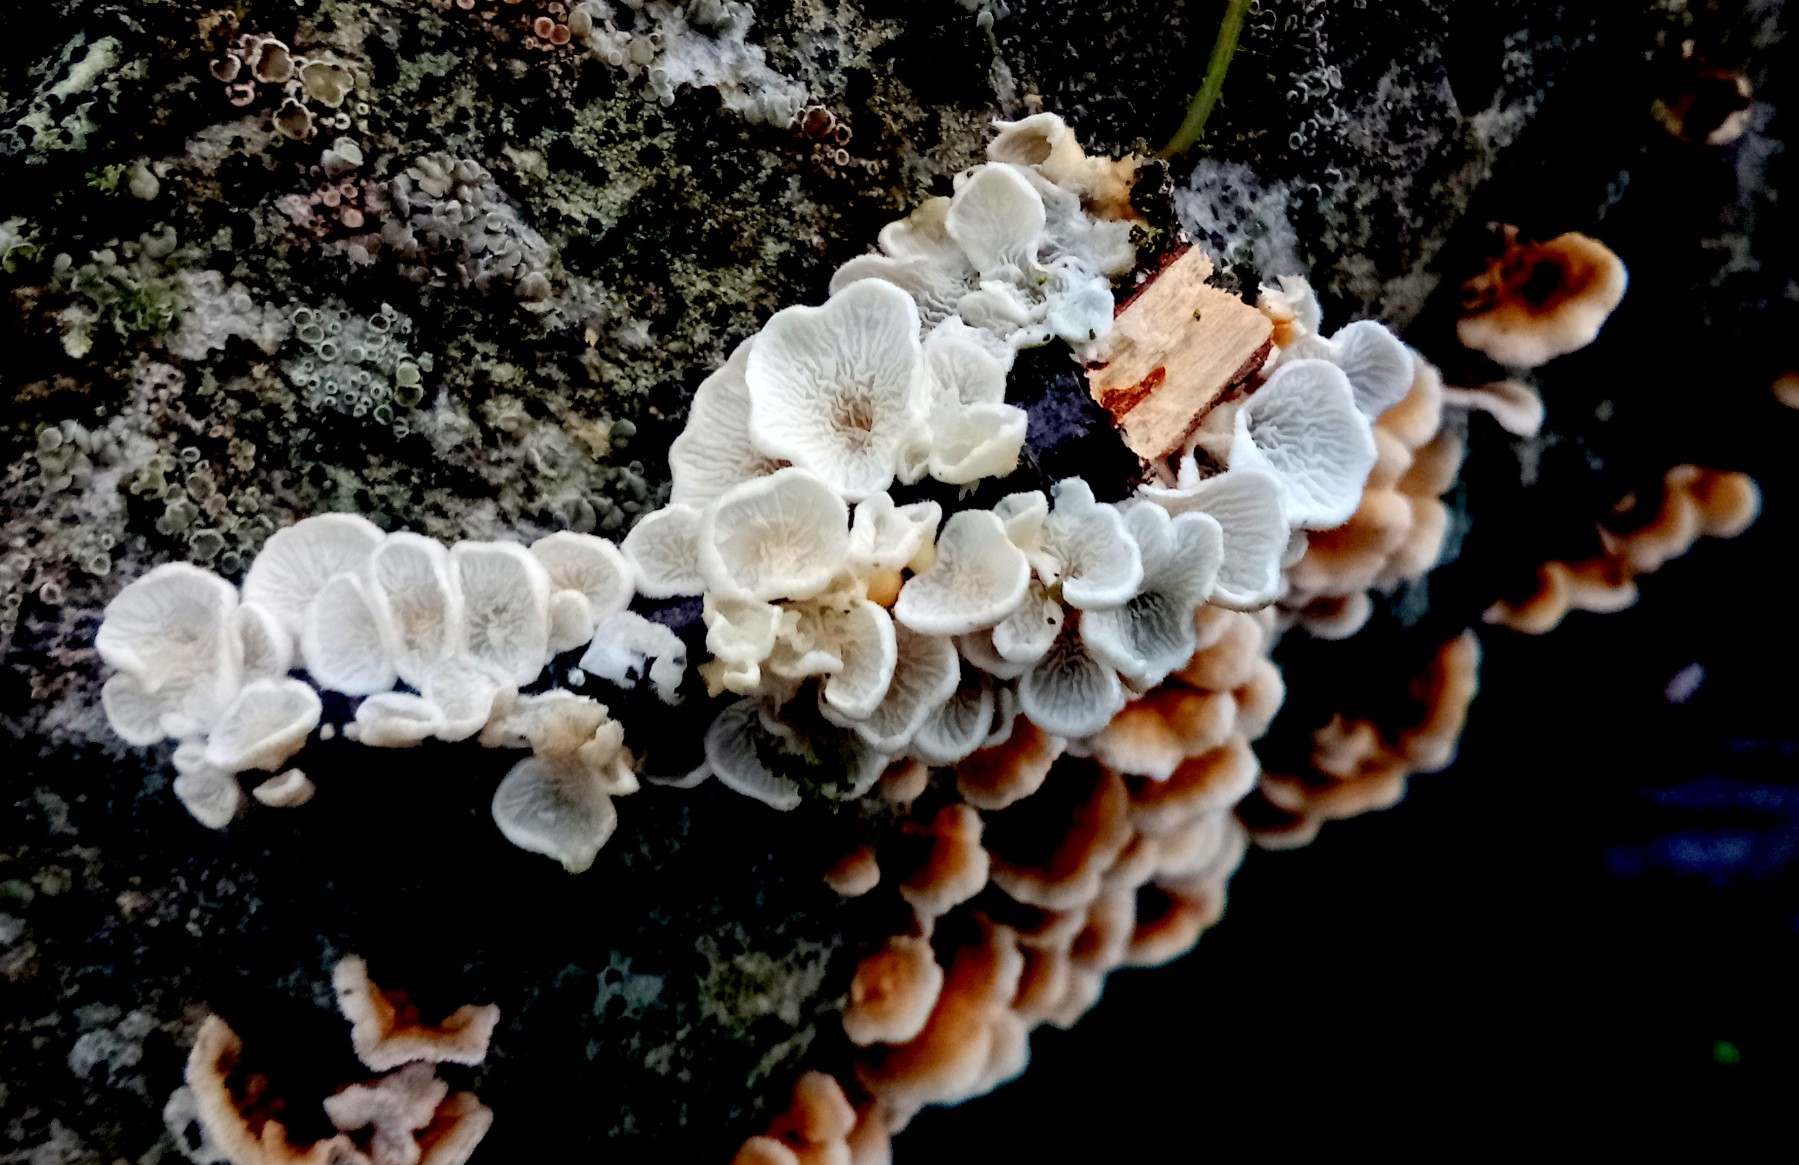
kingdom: Fungi
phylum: Basidiomycota
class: Agaricomycetes
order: Amylocorticiales
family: Amylocorticiaceae
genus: Plicaturopsis
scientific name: Plicaturopsis crispa
